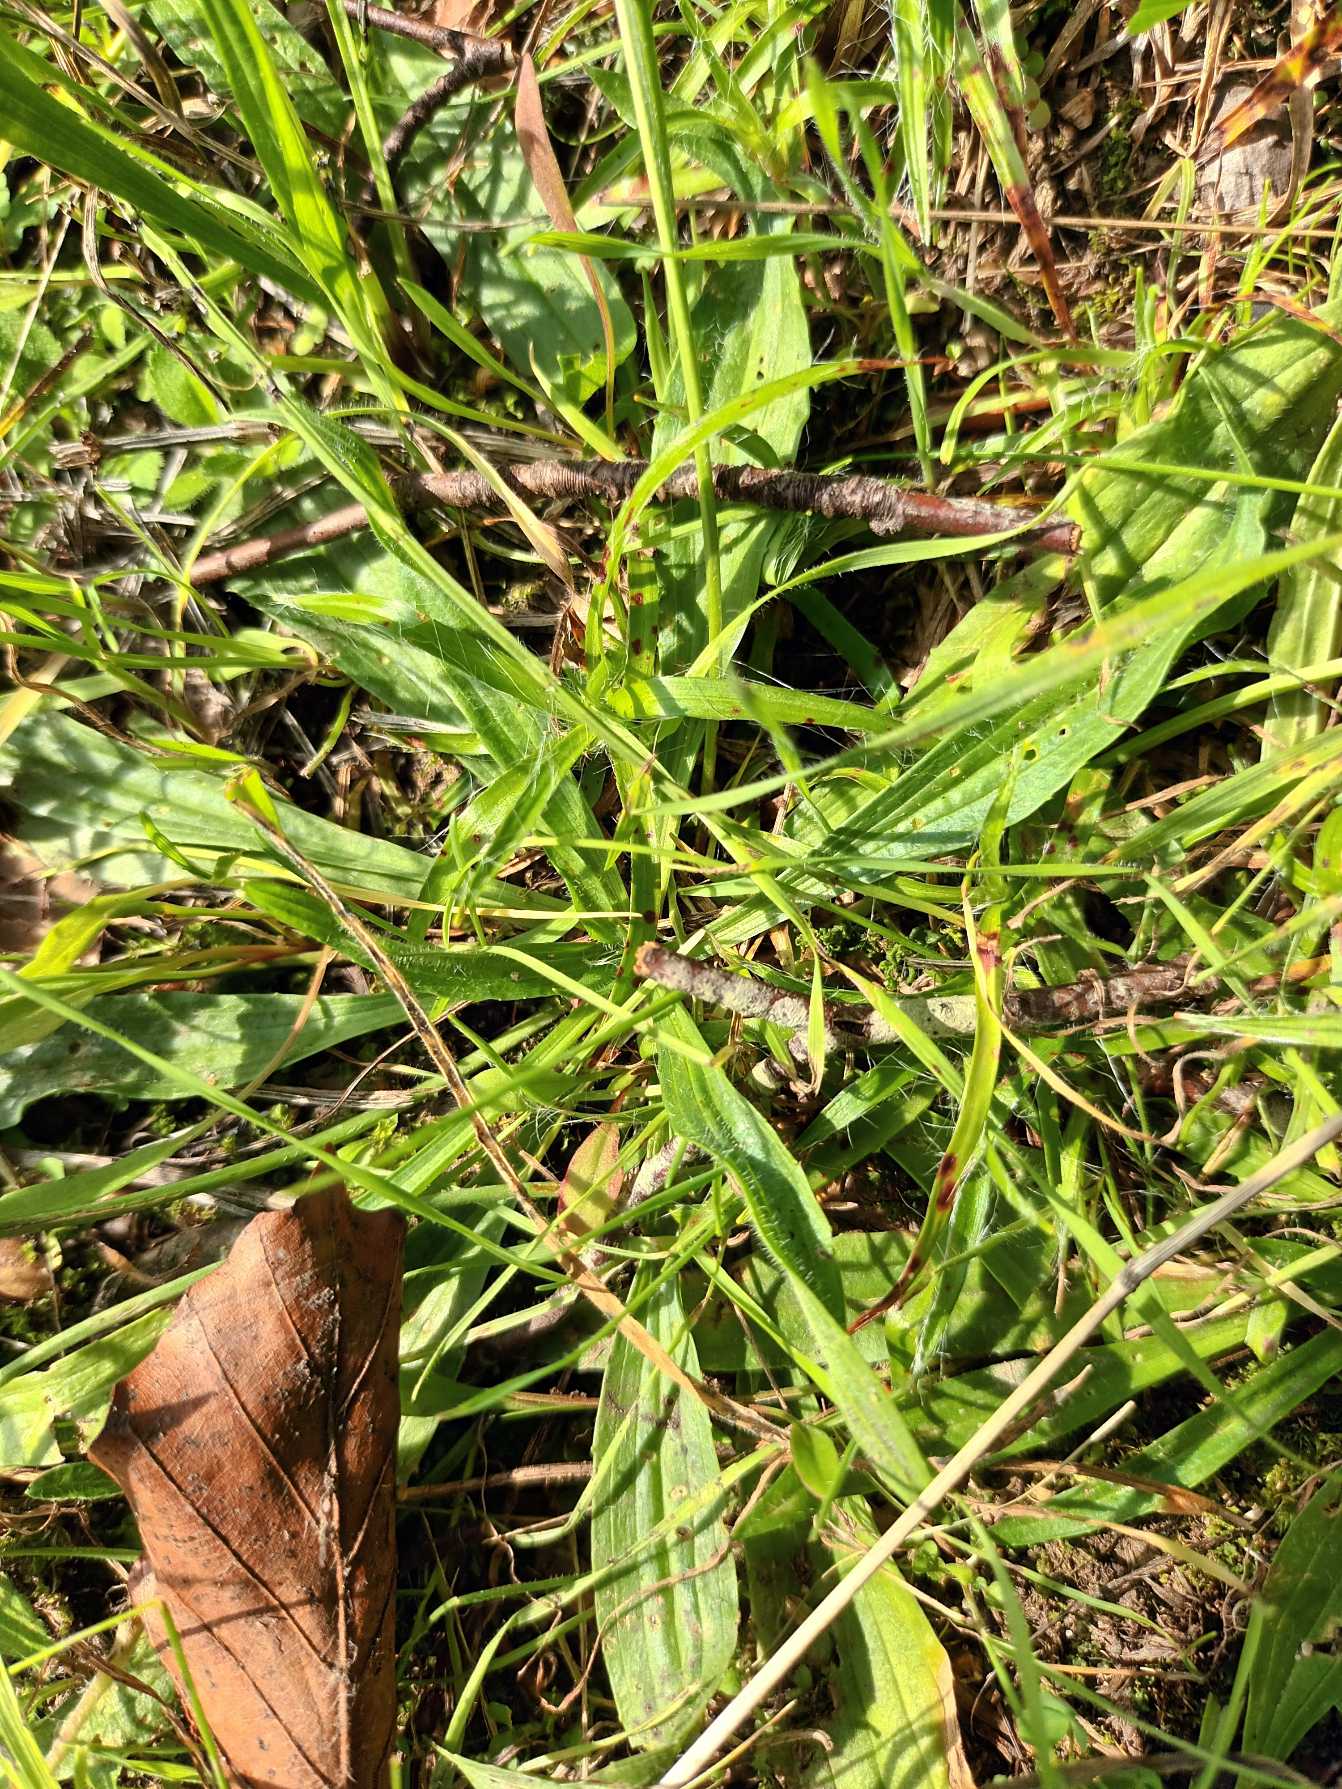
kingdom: Plantae
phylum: Tracheophyta
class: Magnoliopsida
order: Lamiales
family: Plantaginaceae
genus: Plantago
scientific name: Plantago lanceolata
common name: Lancet-vejbred
